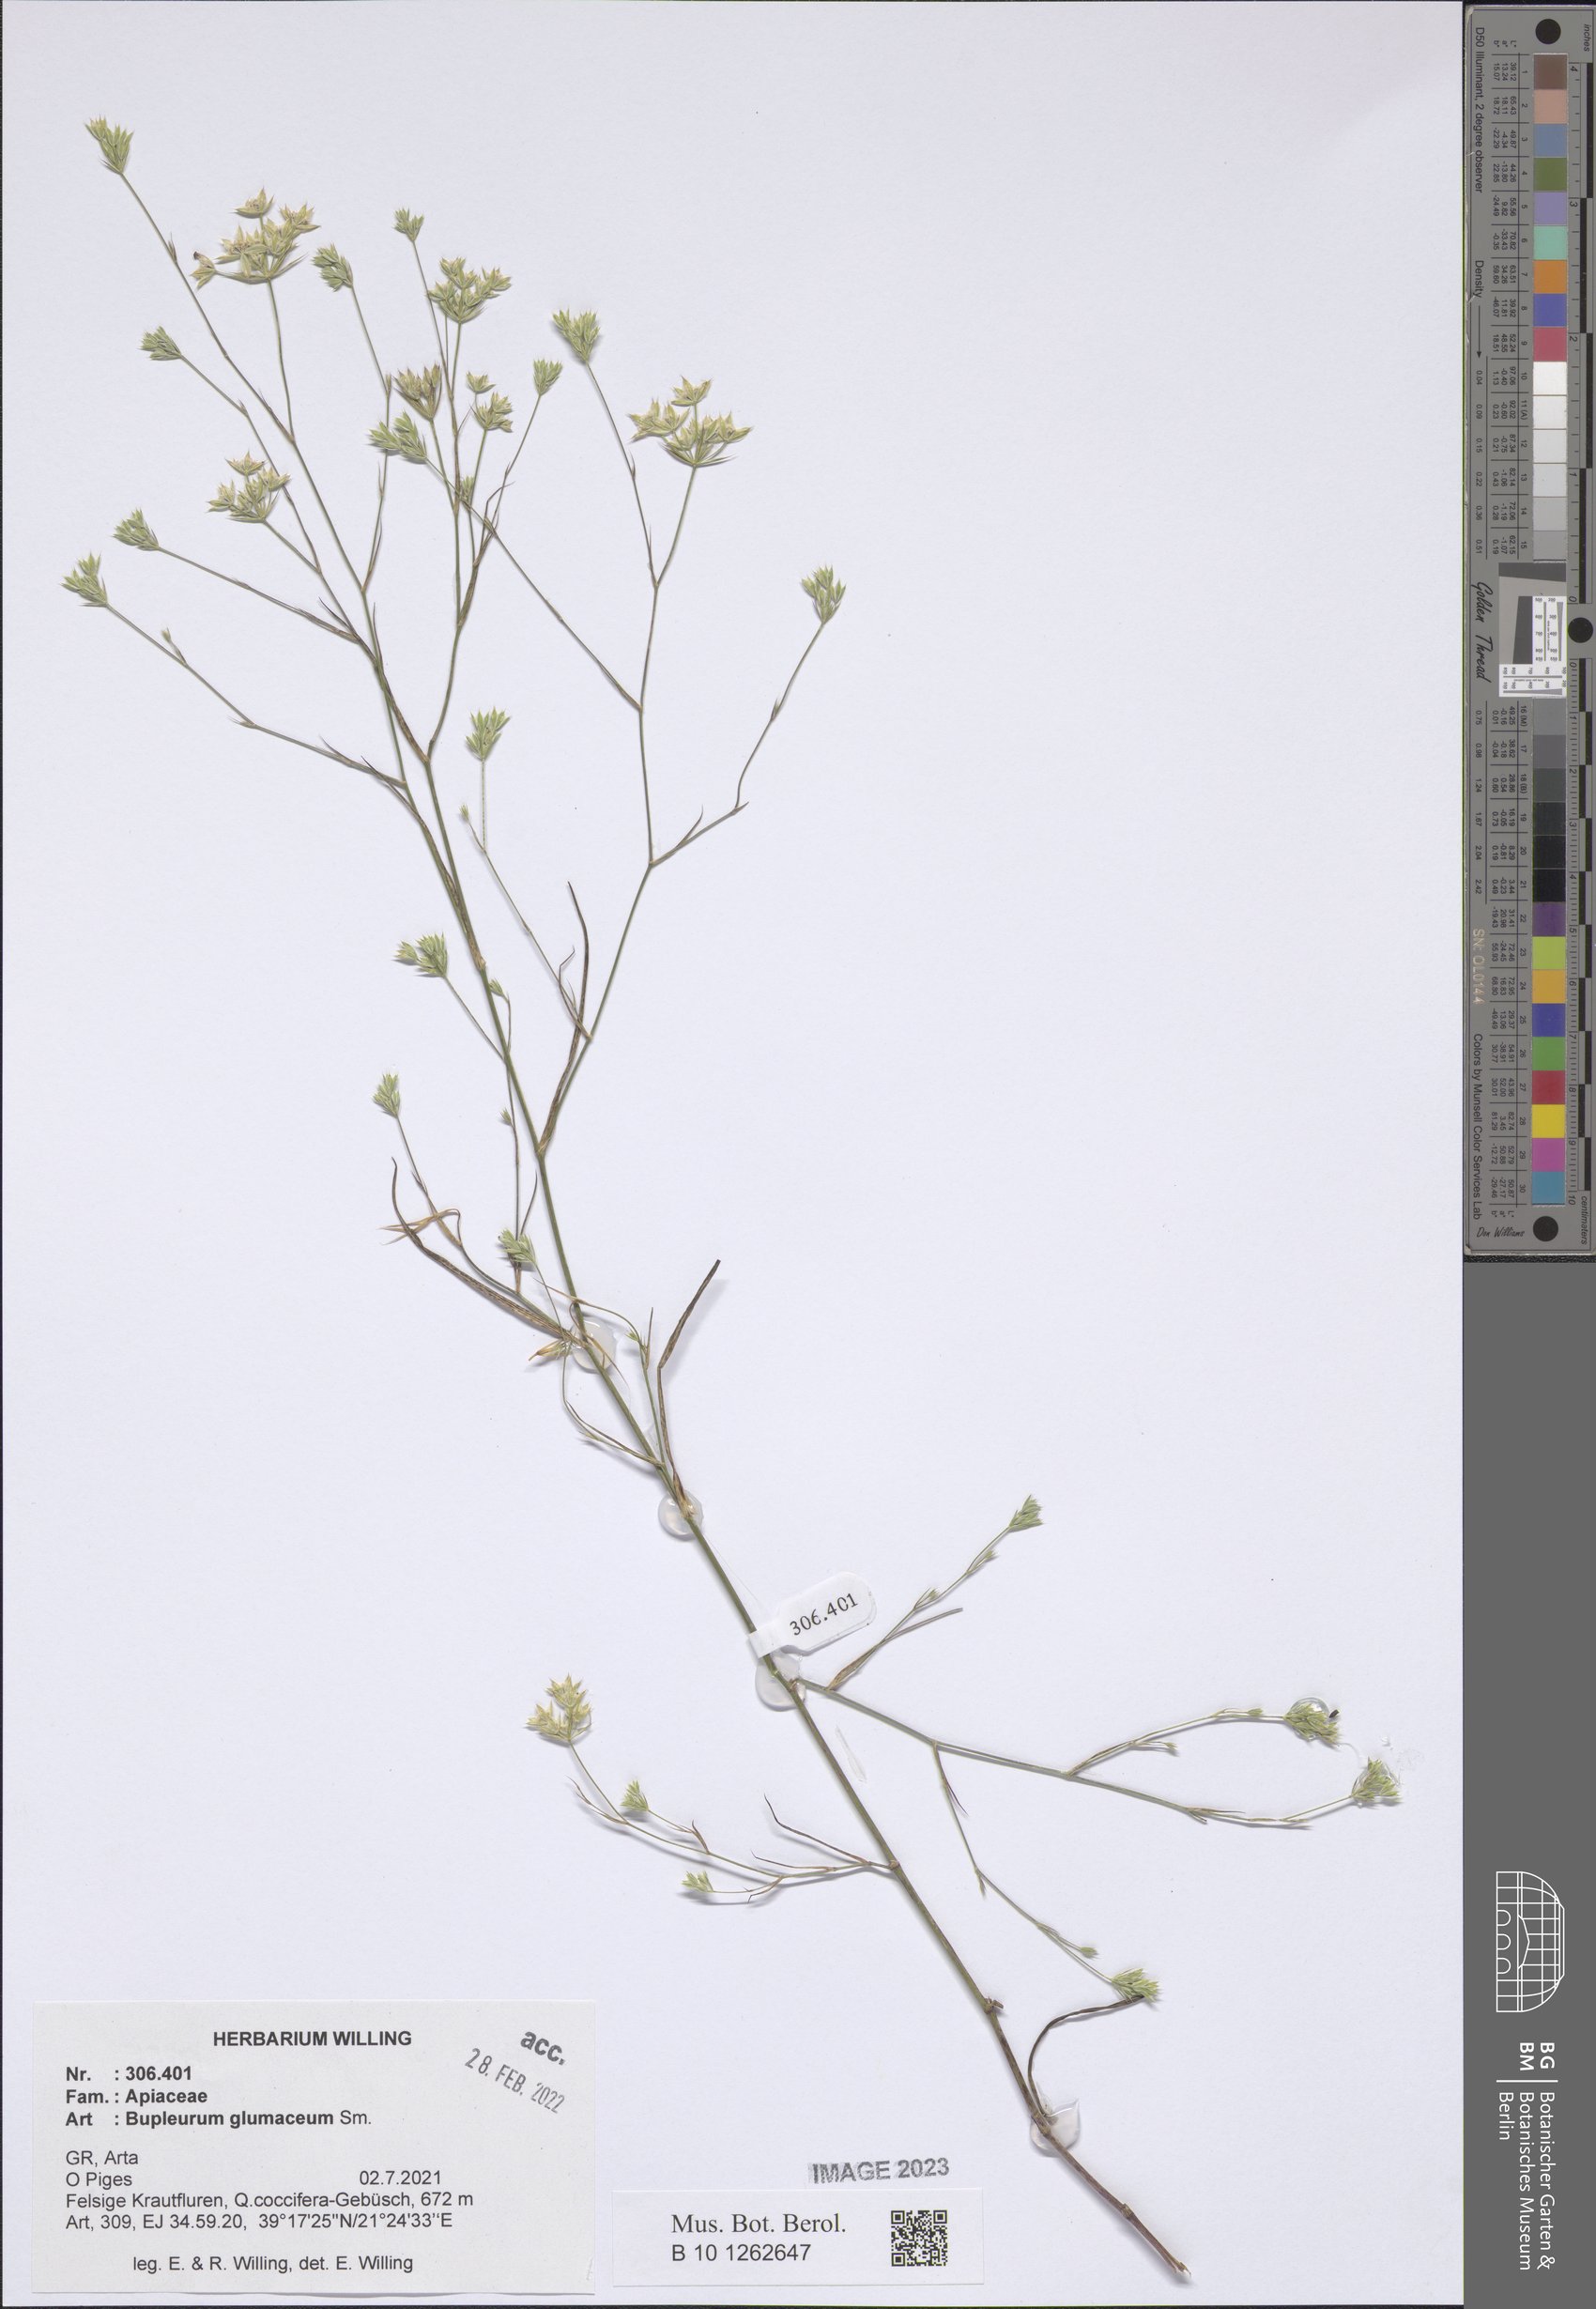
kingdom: Plantae
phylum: Tracheophyta
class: Magnoliopsida
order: Apiales
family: Apiaceae
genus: Bupleurum
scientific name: Bupleurum glumaceum
